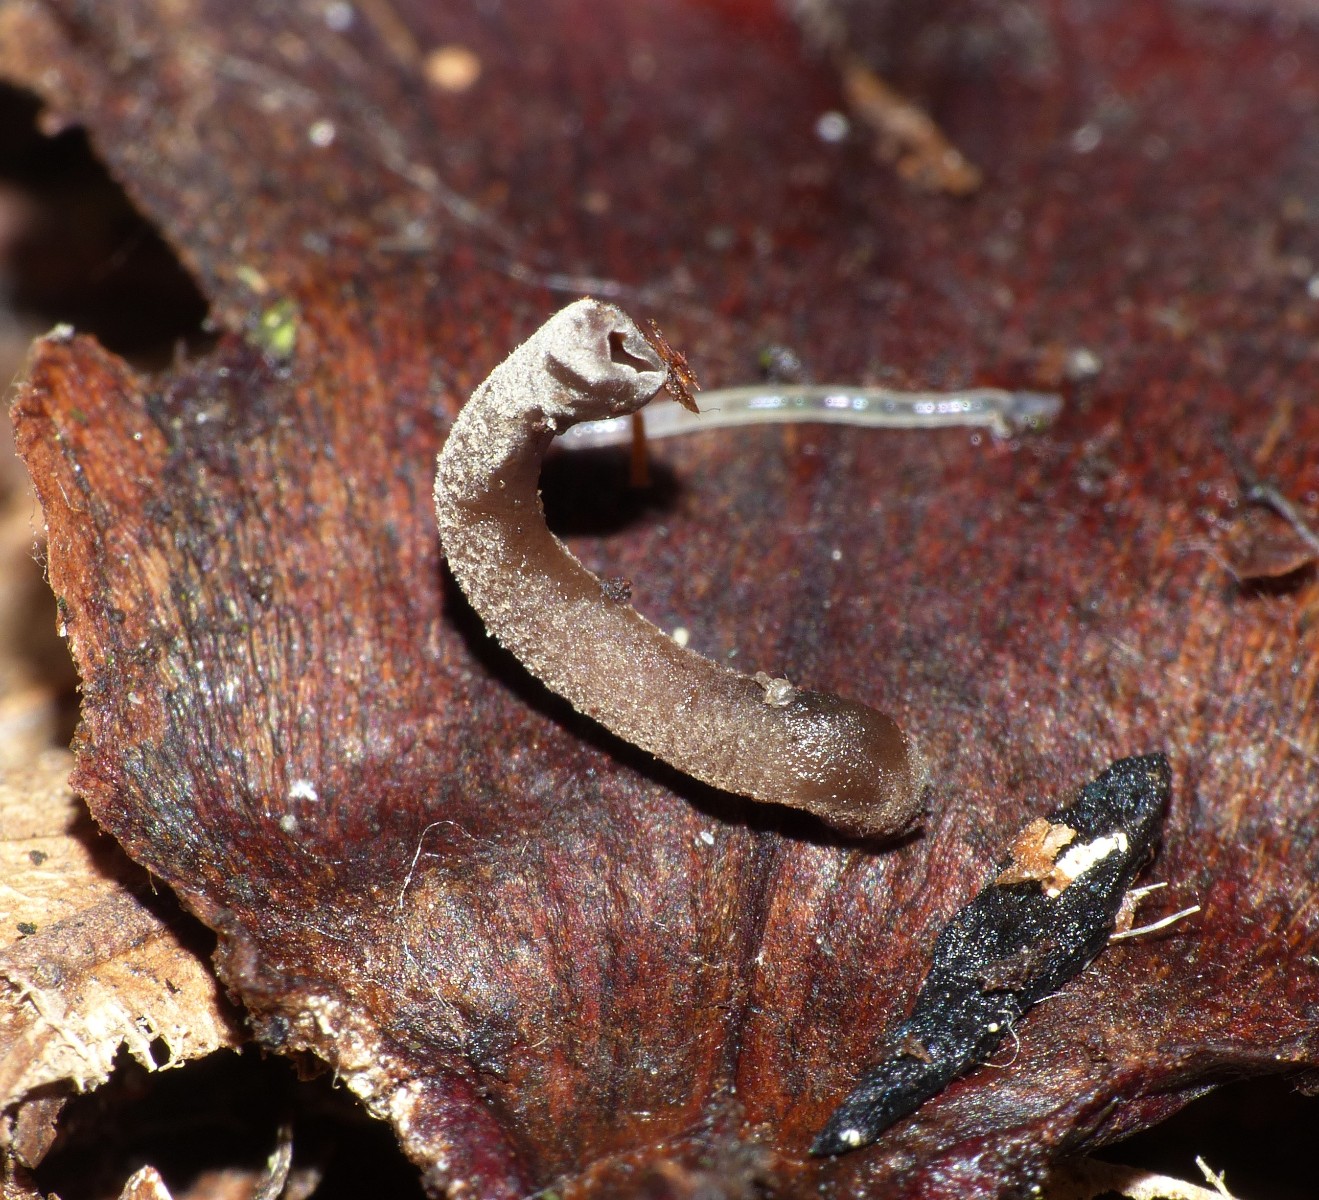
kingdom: Fungi
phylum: Ascomycota
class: Leotiomycetes
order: Helotiales
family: Sclerotiniaceae
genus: Ciboria
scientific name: Ciboria rufofusca
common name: kogleskæl-knoldskive
